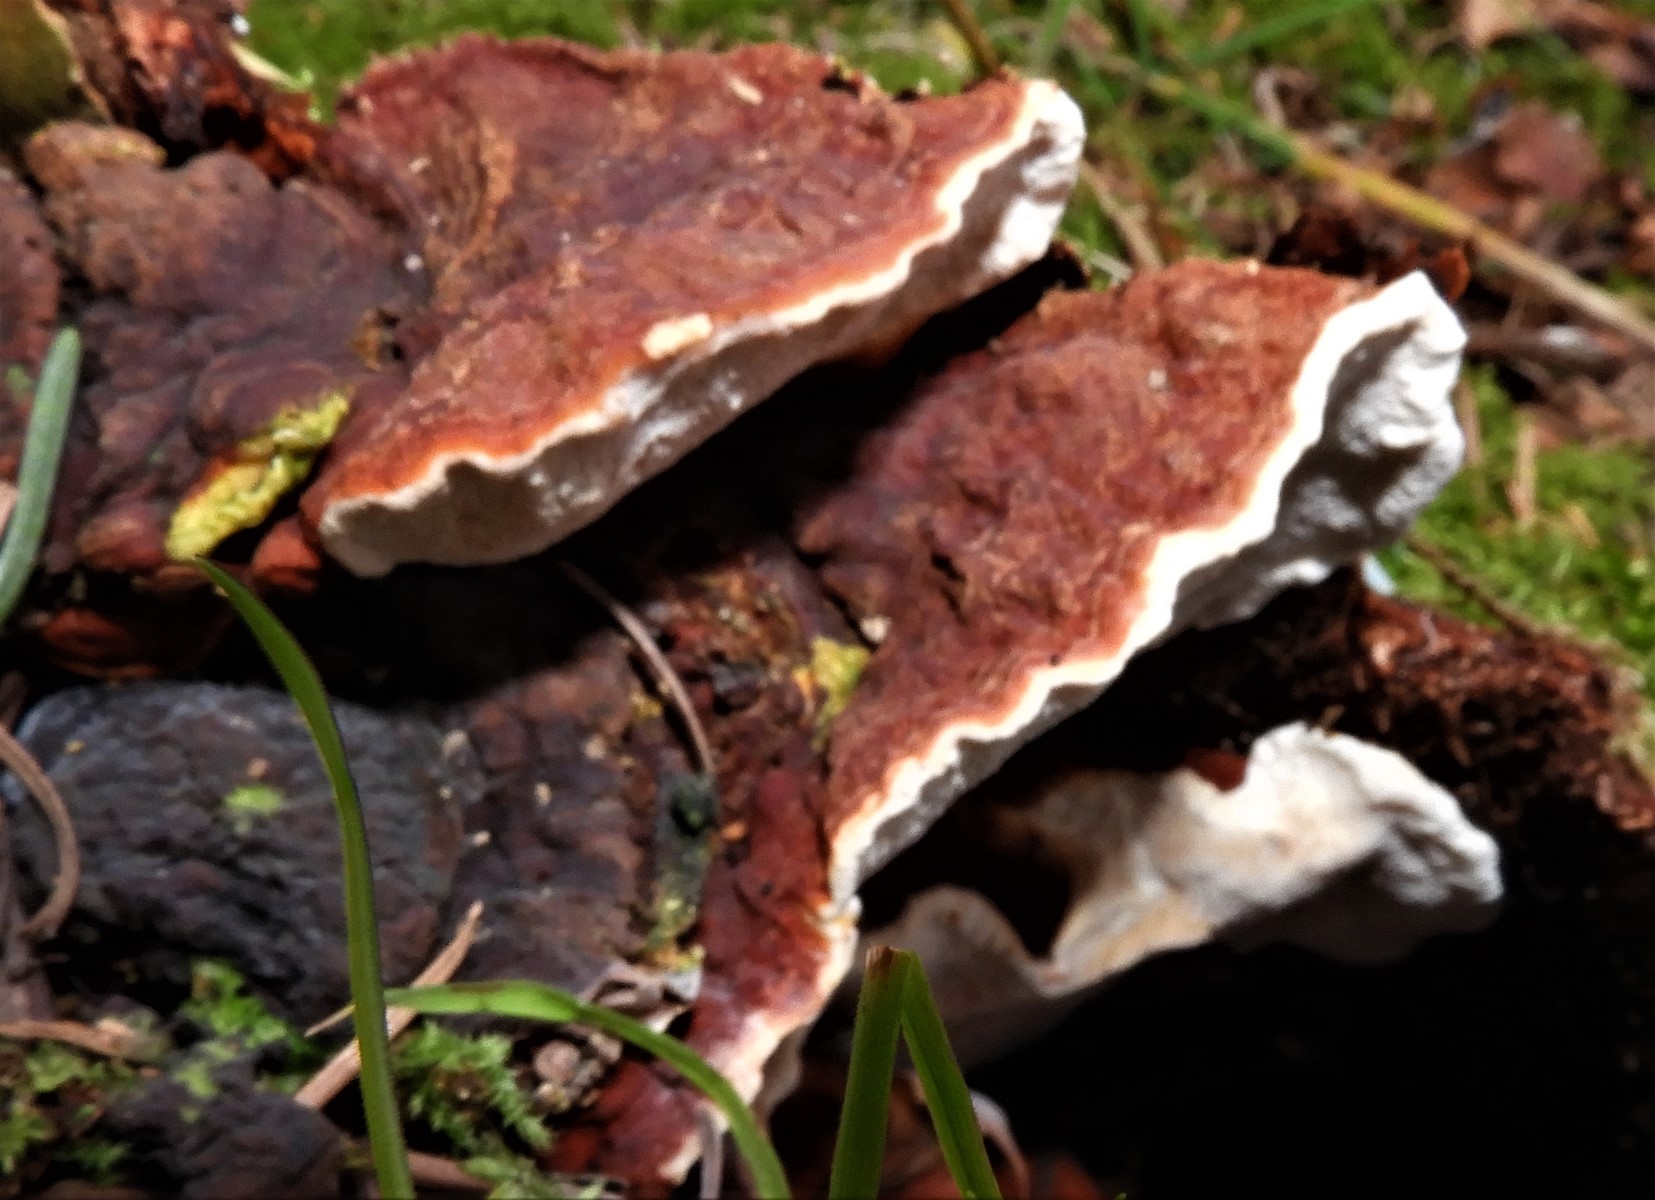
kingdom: Fungi
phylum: Basidiomycota
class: Agaricomycetes
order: Russulales
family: Bondarzewiaceae
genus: Heterobasidion
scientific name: Heterobasidion annosum
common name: almindelig rodfordærver
